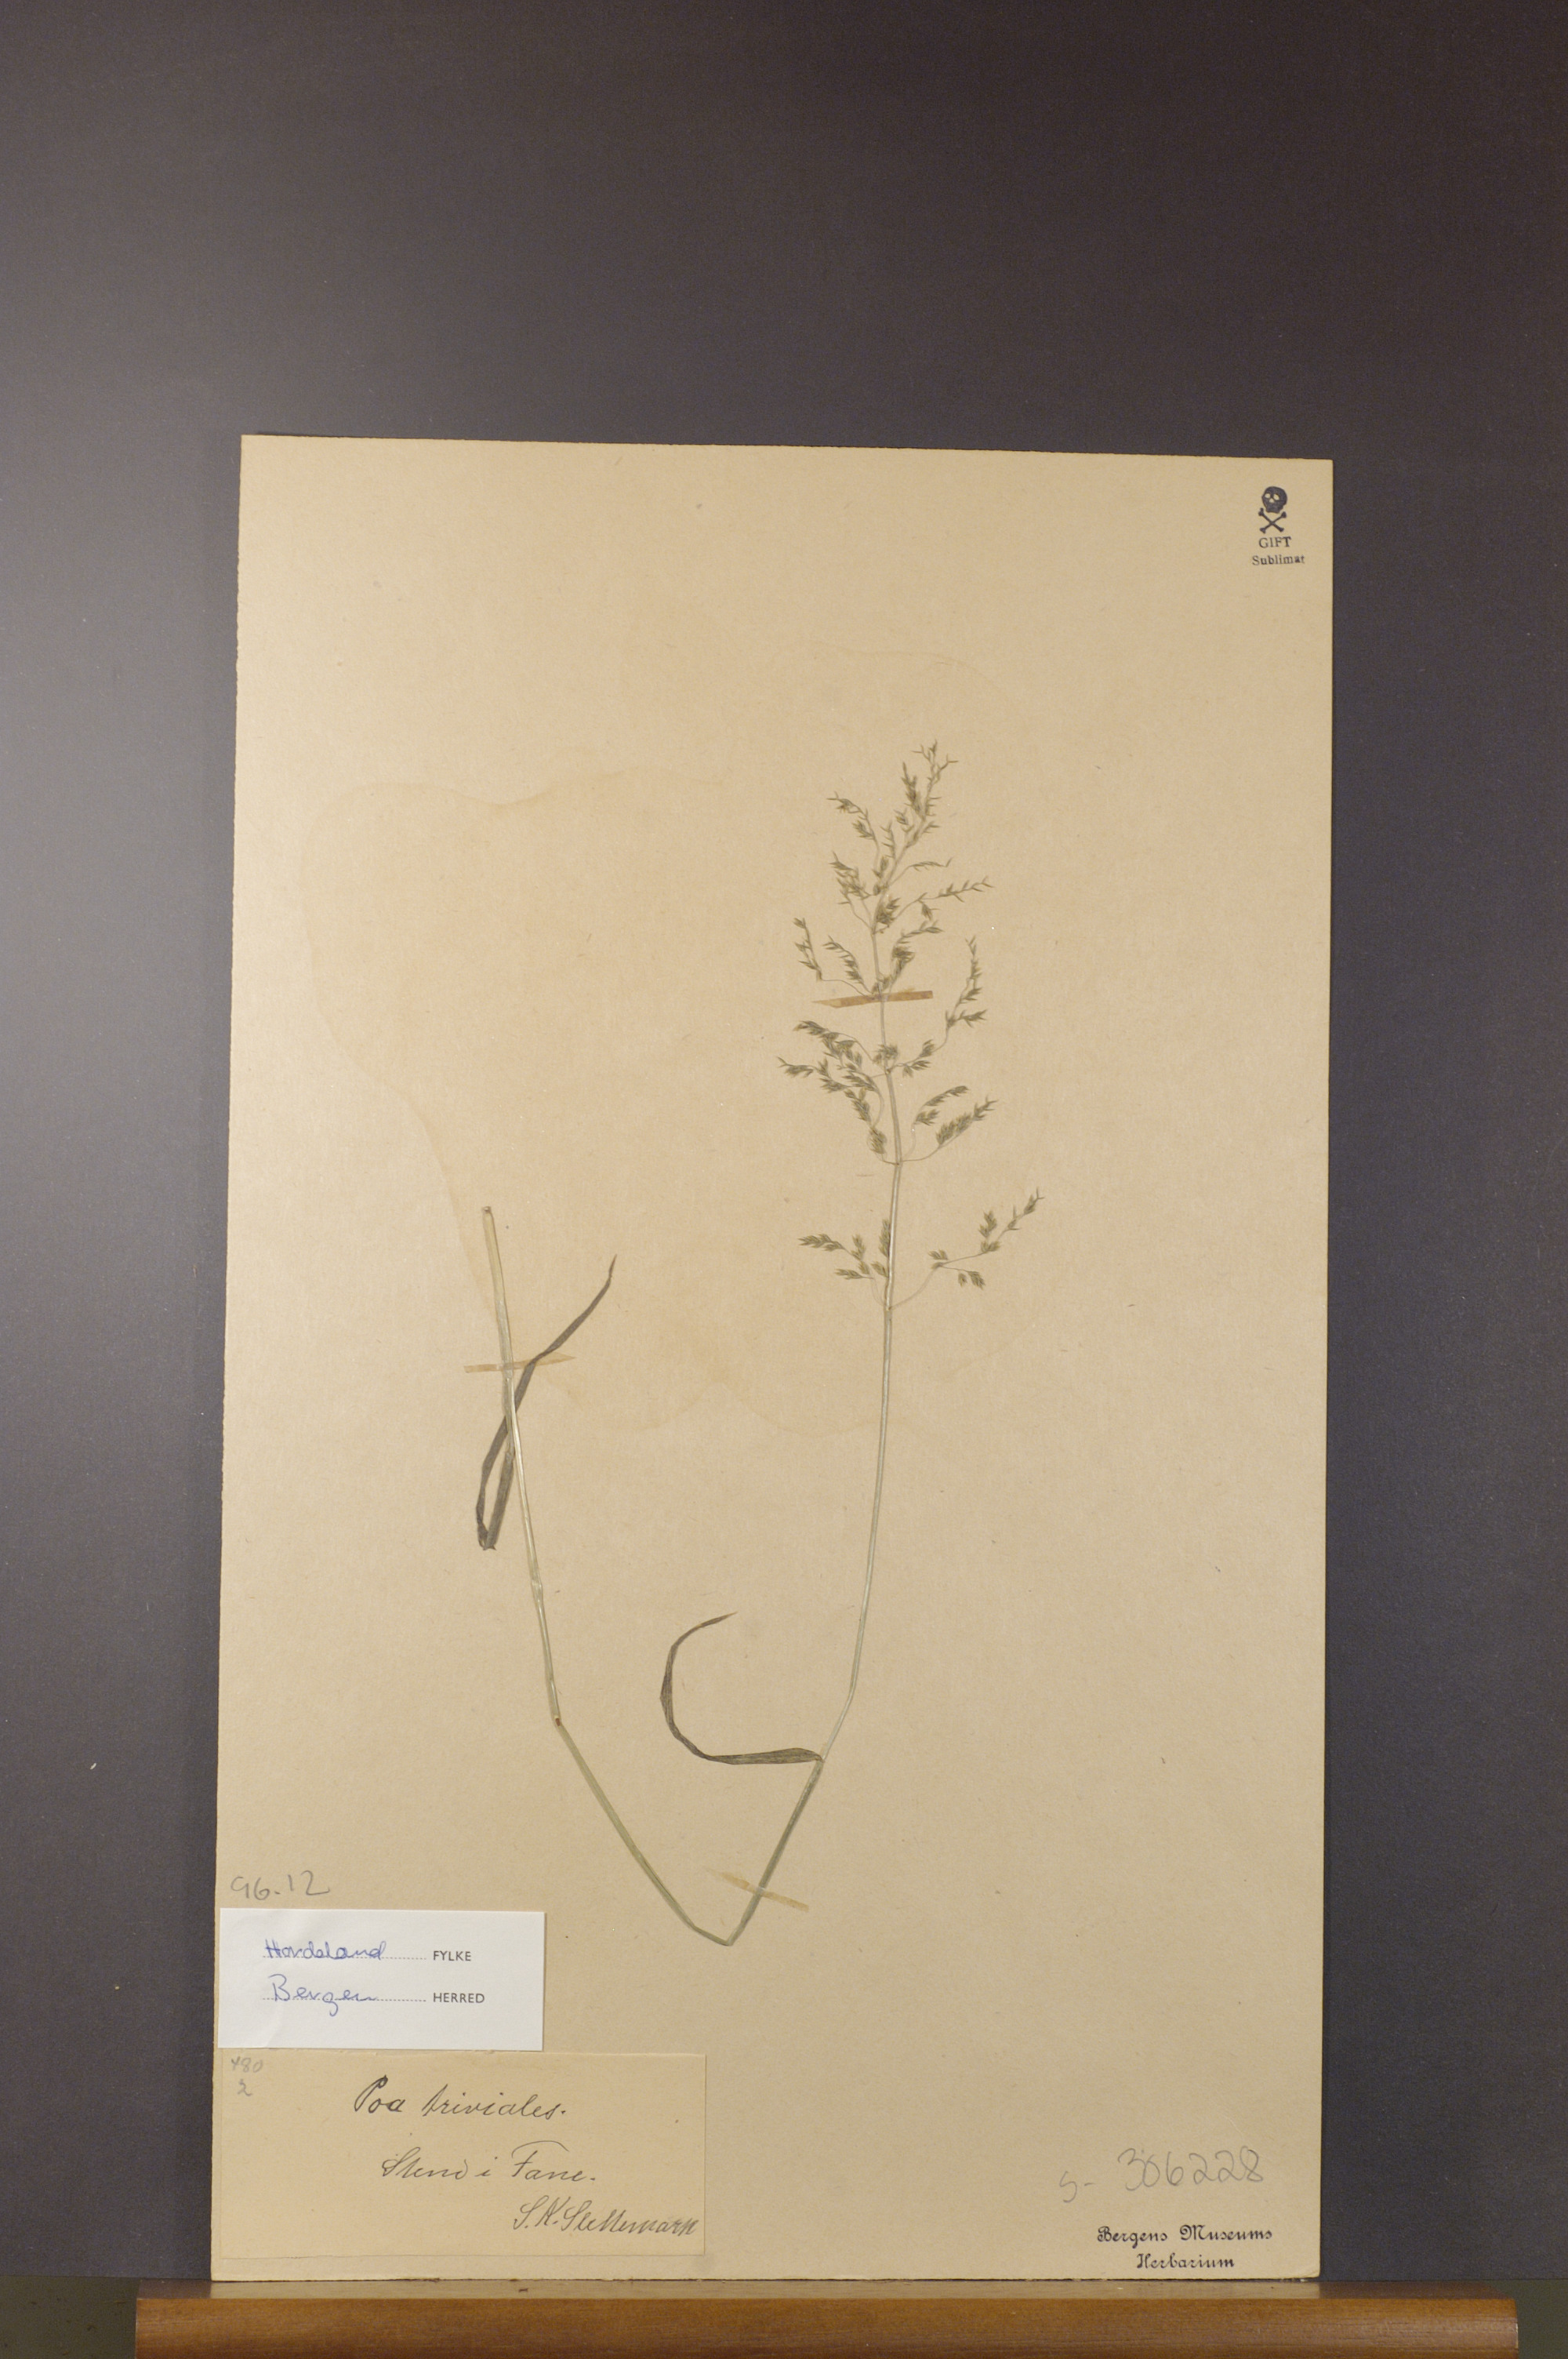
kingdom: Plantae
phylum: Tracheophyta
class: Liliopsida
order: Poales
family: Poaceae
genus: Poa
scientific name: Poa trivialis
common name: Rough bluegrass
